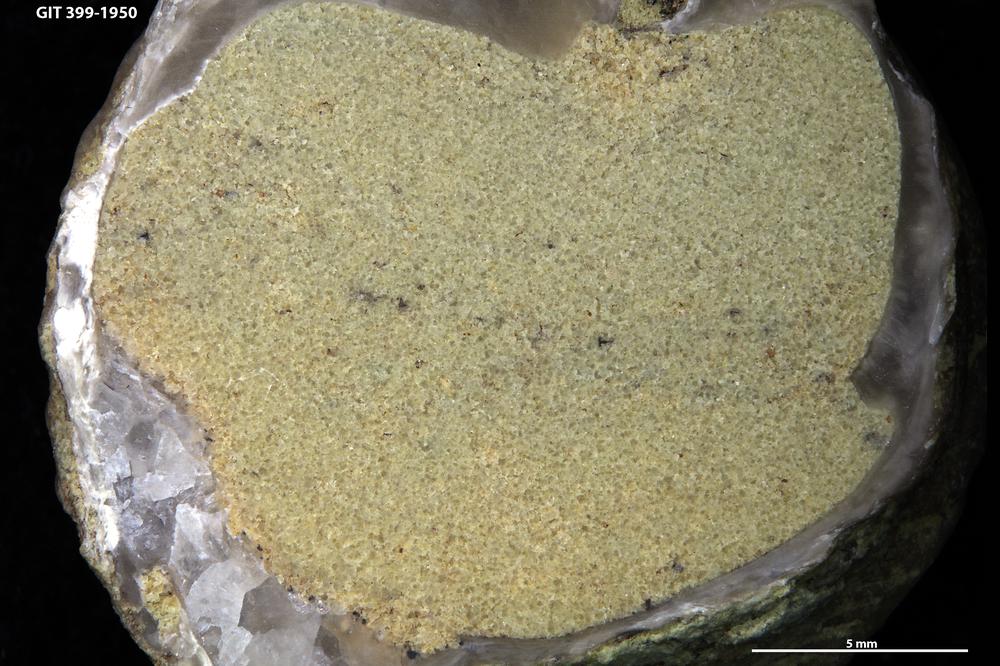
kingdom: Animalia
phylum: Brachiopoda
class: Rhynchonellata
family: Plectorthidae
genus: Platystrophia
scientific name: Platystrophia
